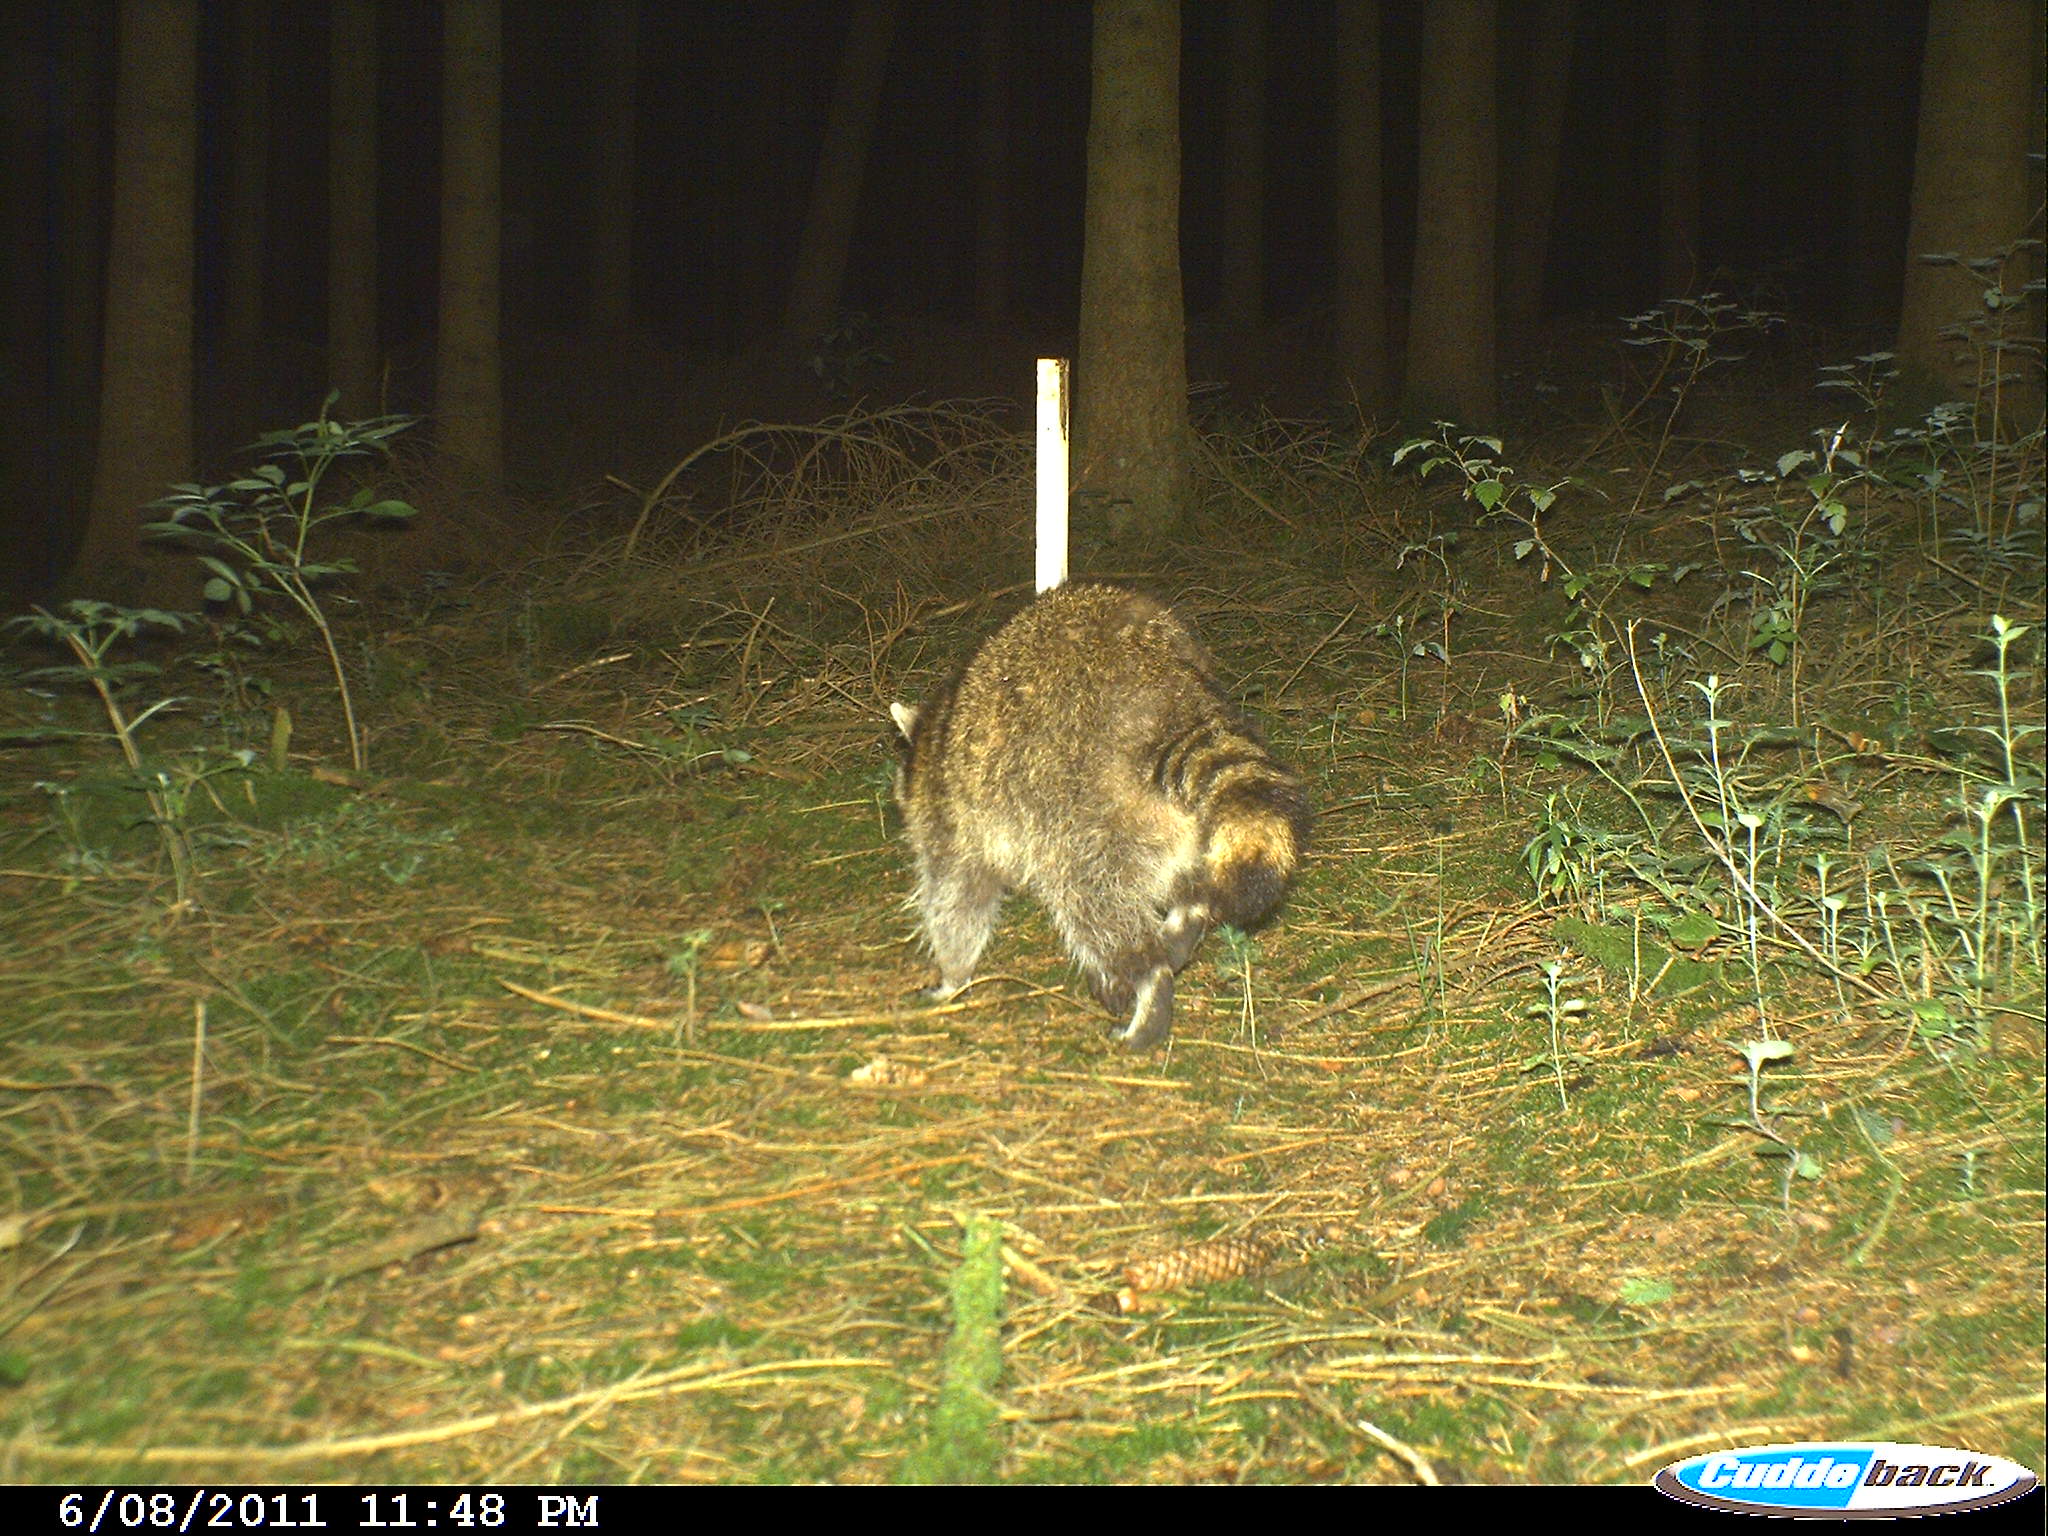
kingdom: Animalia
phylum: Chordata
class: Mammalia
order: Carnivora
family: Procyonidae
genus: Procyon
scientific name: Procyon lotor
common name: Raccoon
